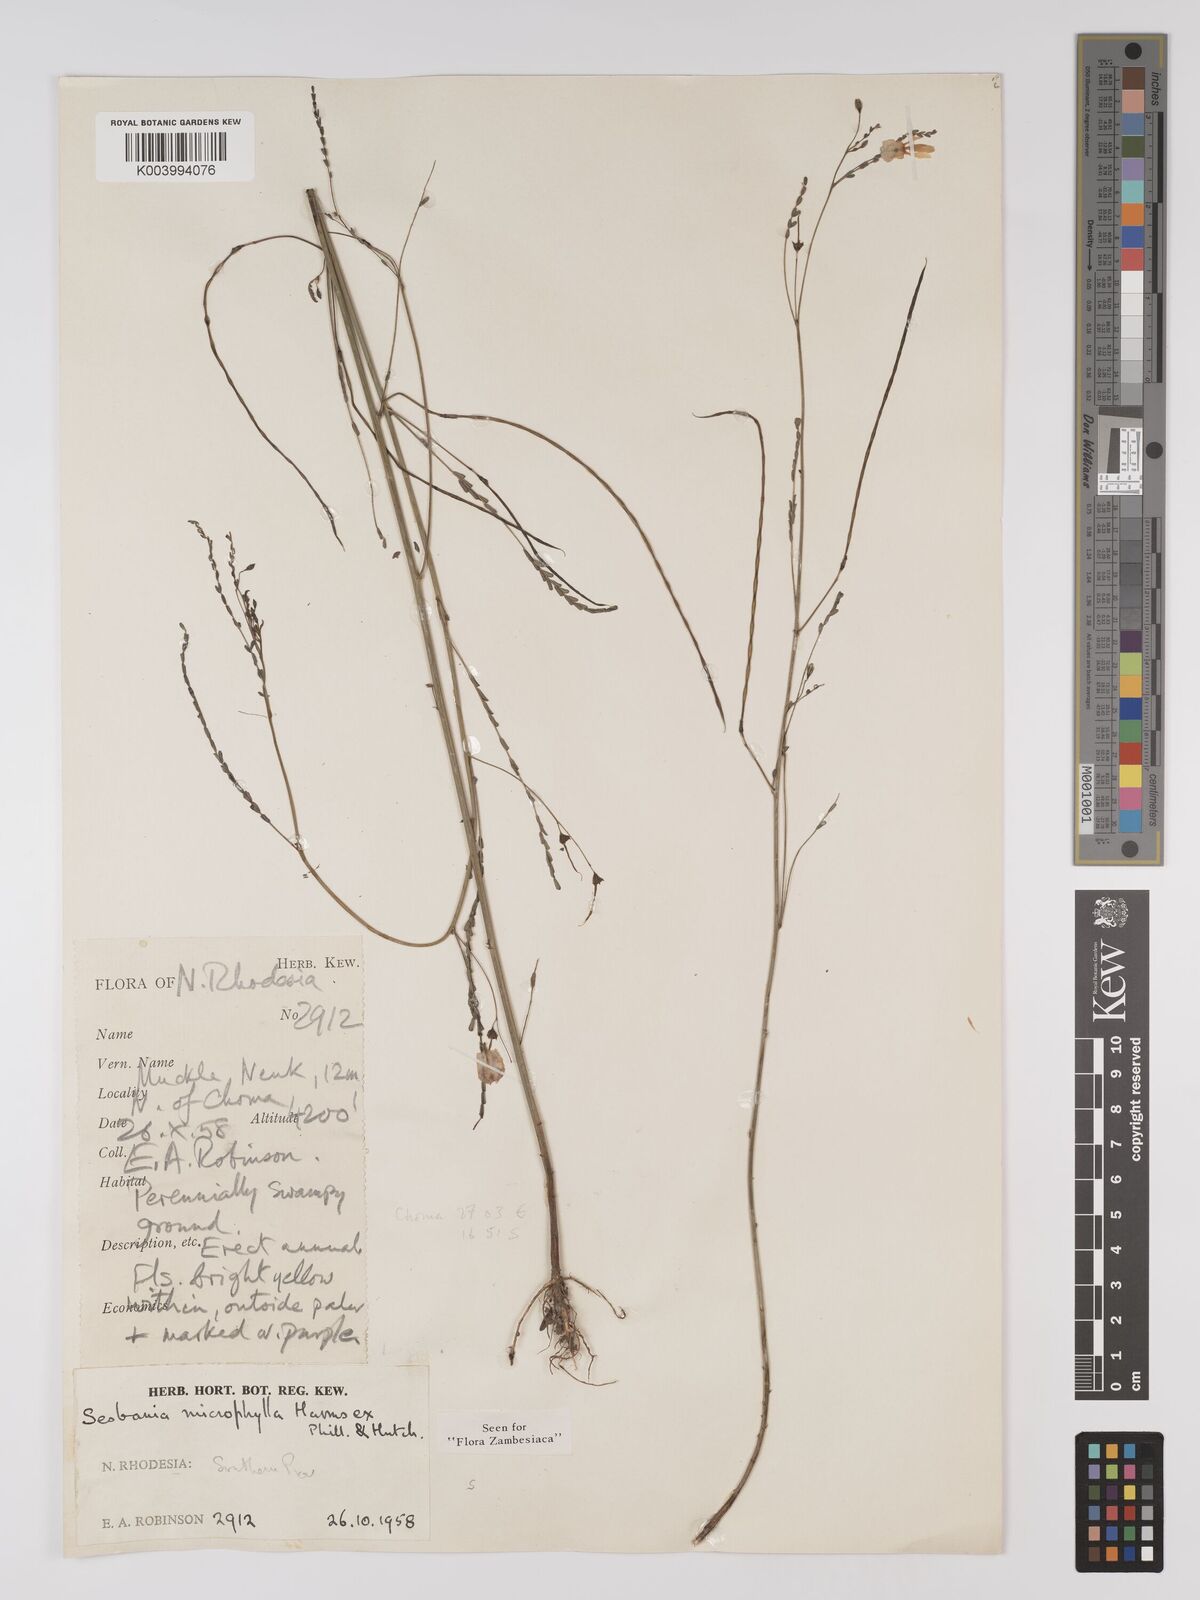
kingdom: Plantae
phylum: Tracheophyta
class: Magnoliopsida
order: Fabales
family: Fabaceae
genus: Sesbania
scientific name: Sesbania microphylla
